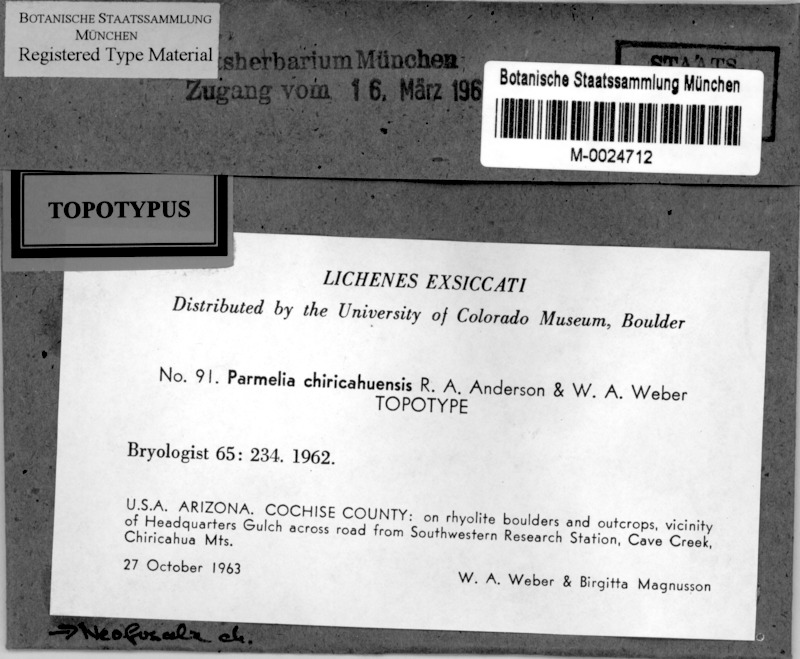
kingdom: Fungi
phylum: Ascomycota
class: Lecanoromycetes
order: Lecanorales
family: Parmeliaceae
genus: Xanthoparmelia
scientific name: Xanthoparmelia chiricahuensis
